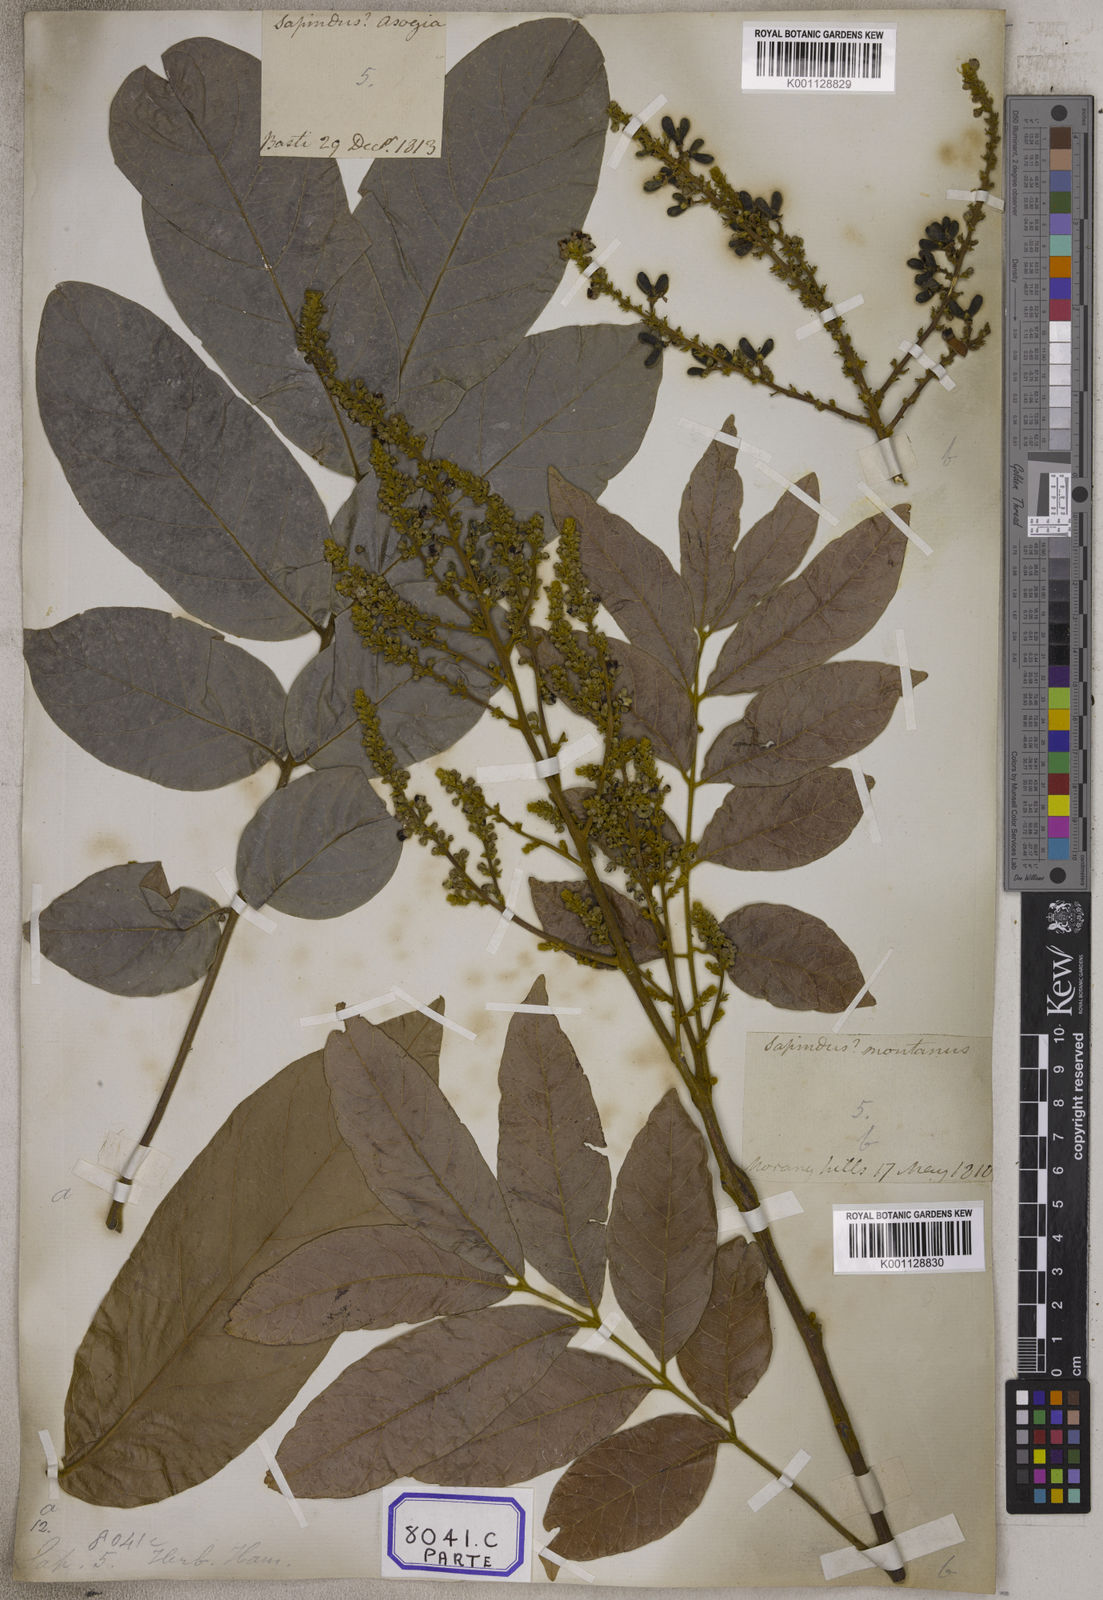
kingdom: Plantae
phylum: Tracheophyta
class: Magnoliopsida
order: Sapindales
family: Sapindaceae
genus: Lepisanthes
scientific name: Lepisanthes rubiginosa
